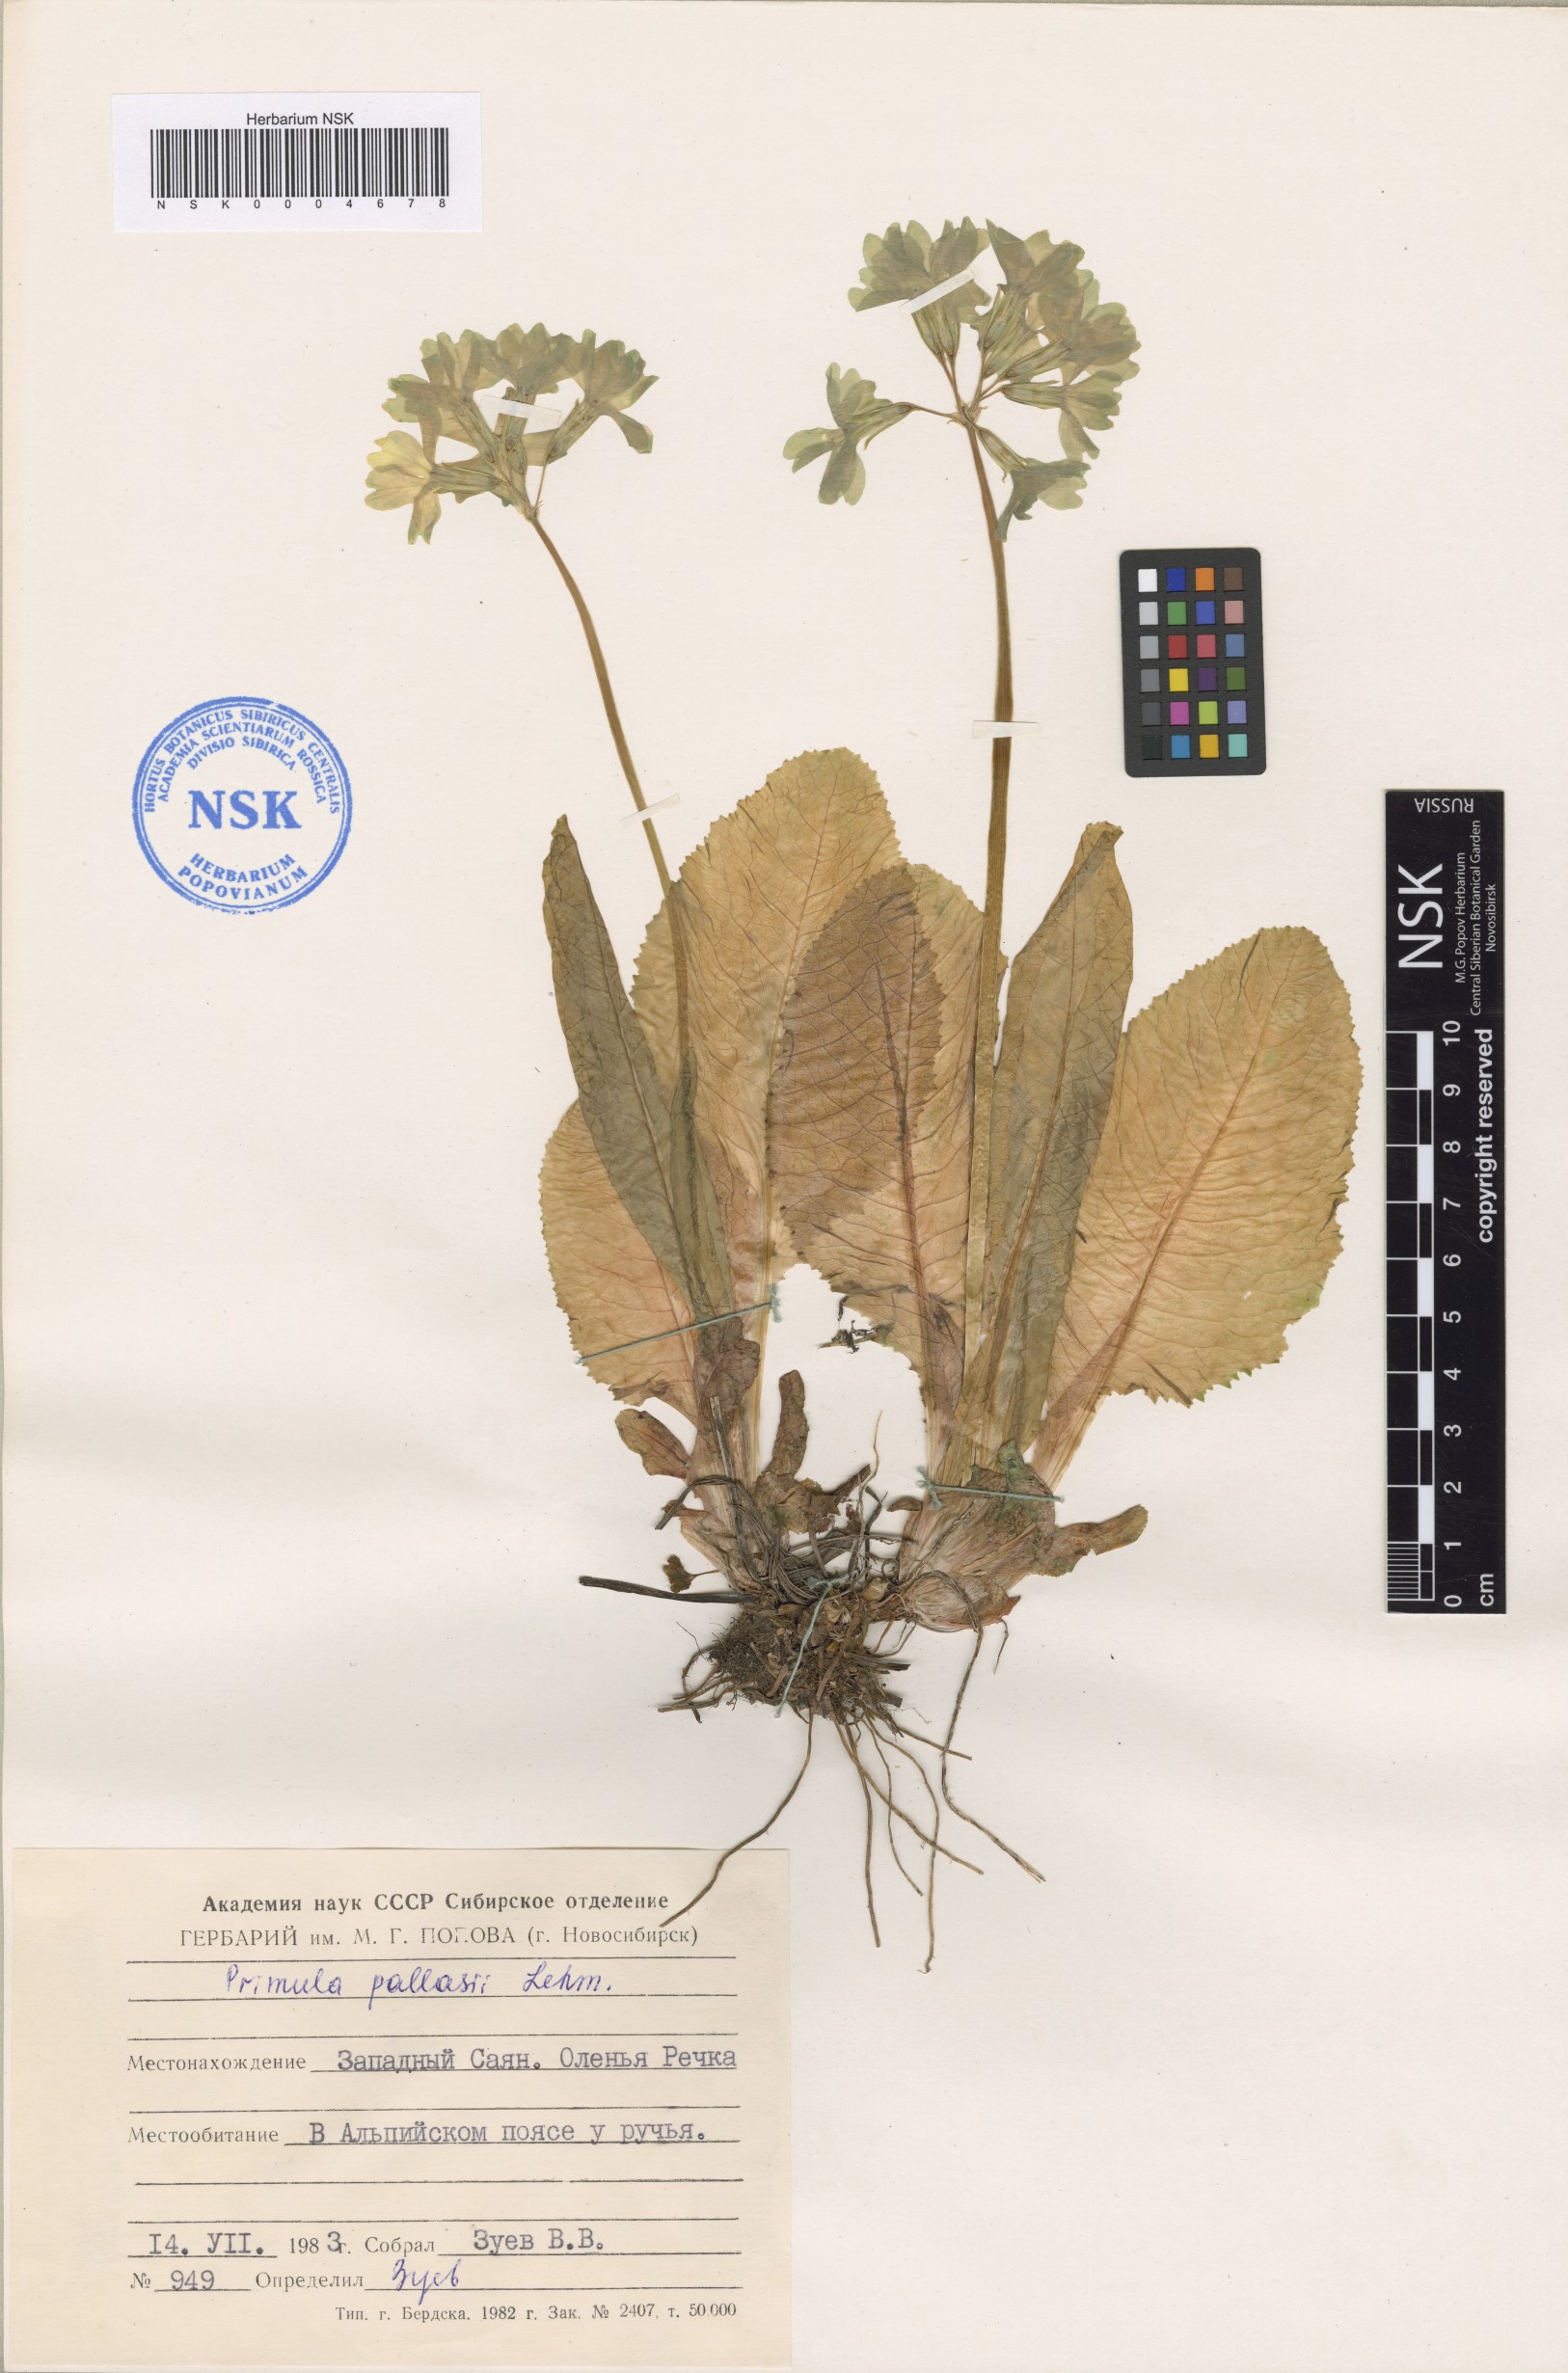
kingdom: Plantae
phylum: Tracheophyta
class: Magnoliopsida
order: Ericales
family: Primulaceae
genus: Primula
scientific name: Primula elatior
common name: Oxlip
